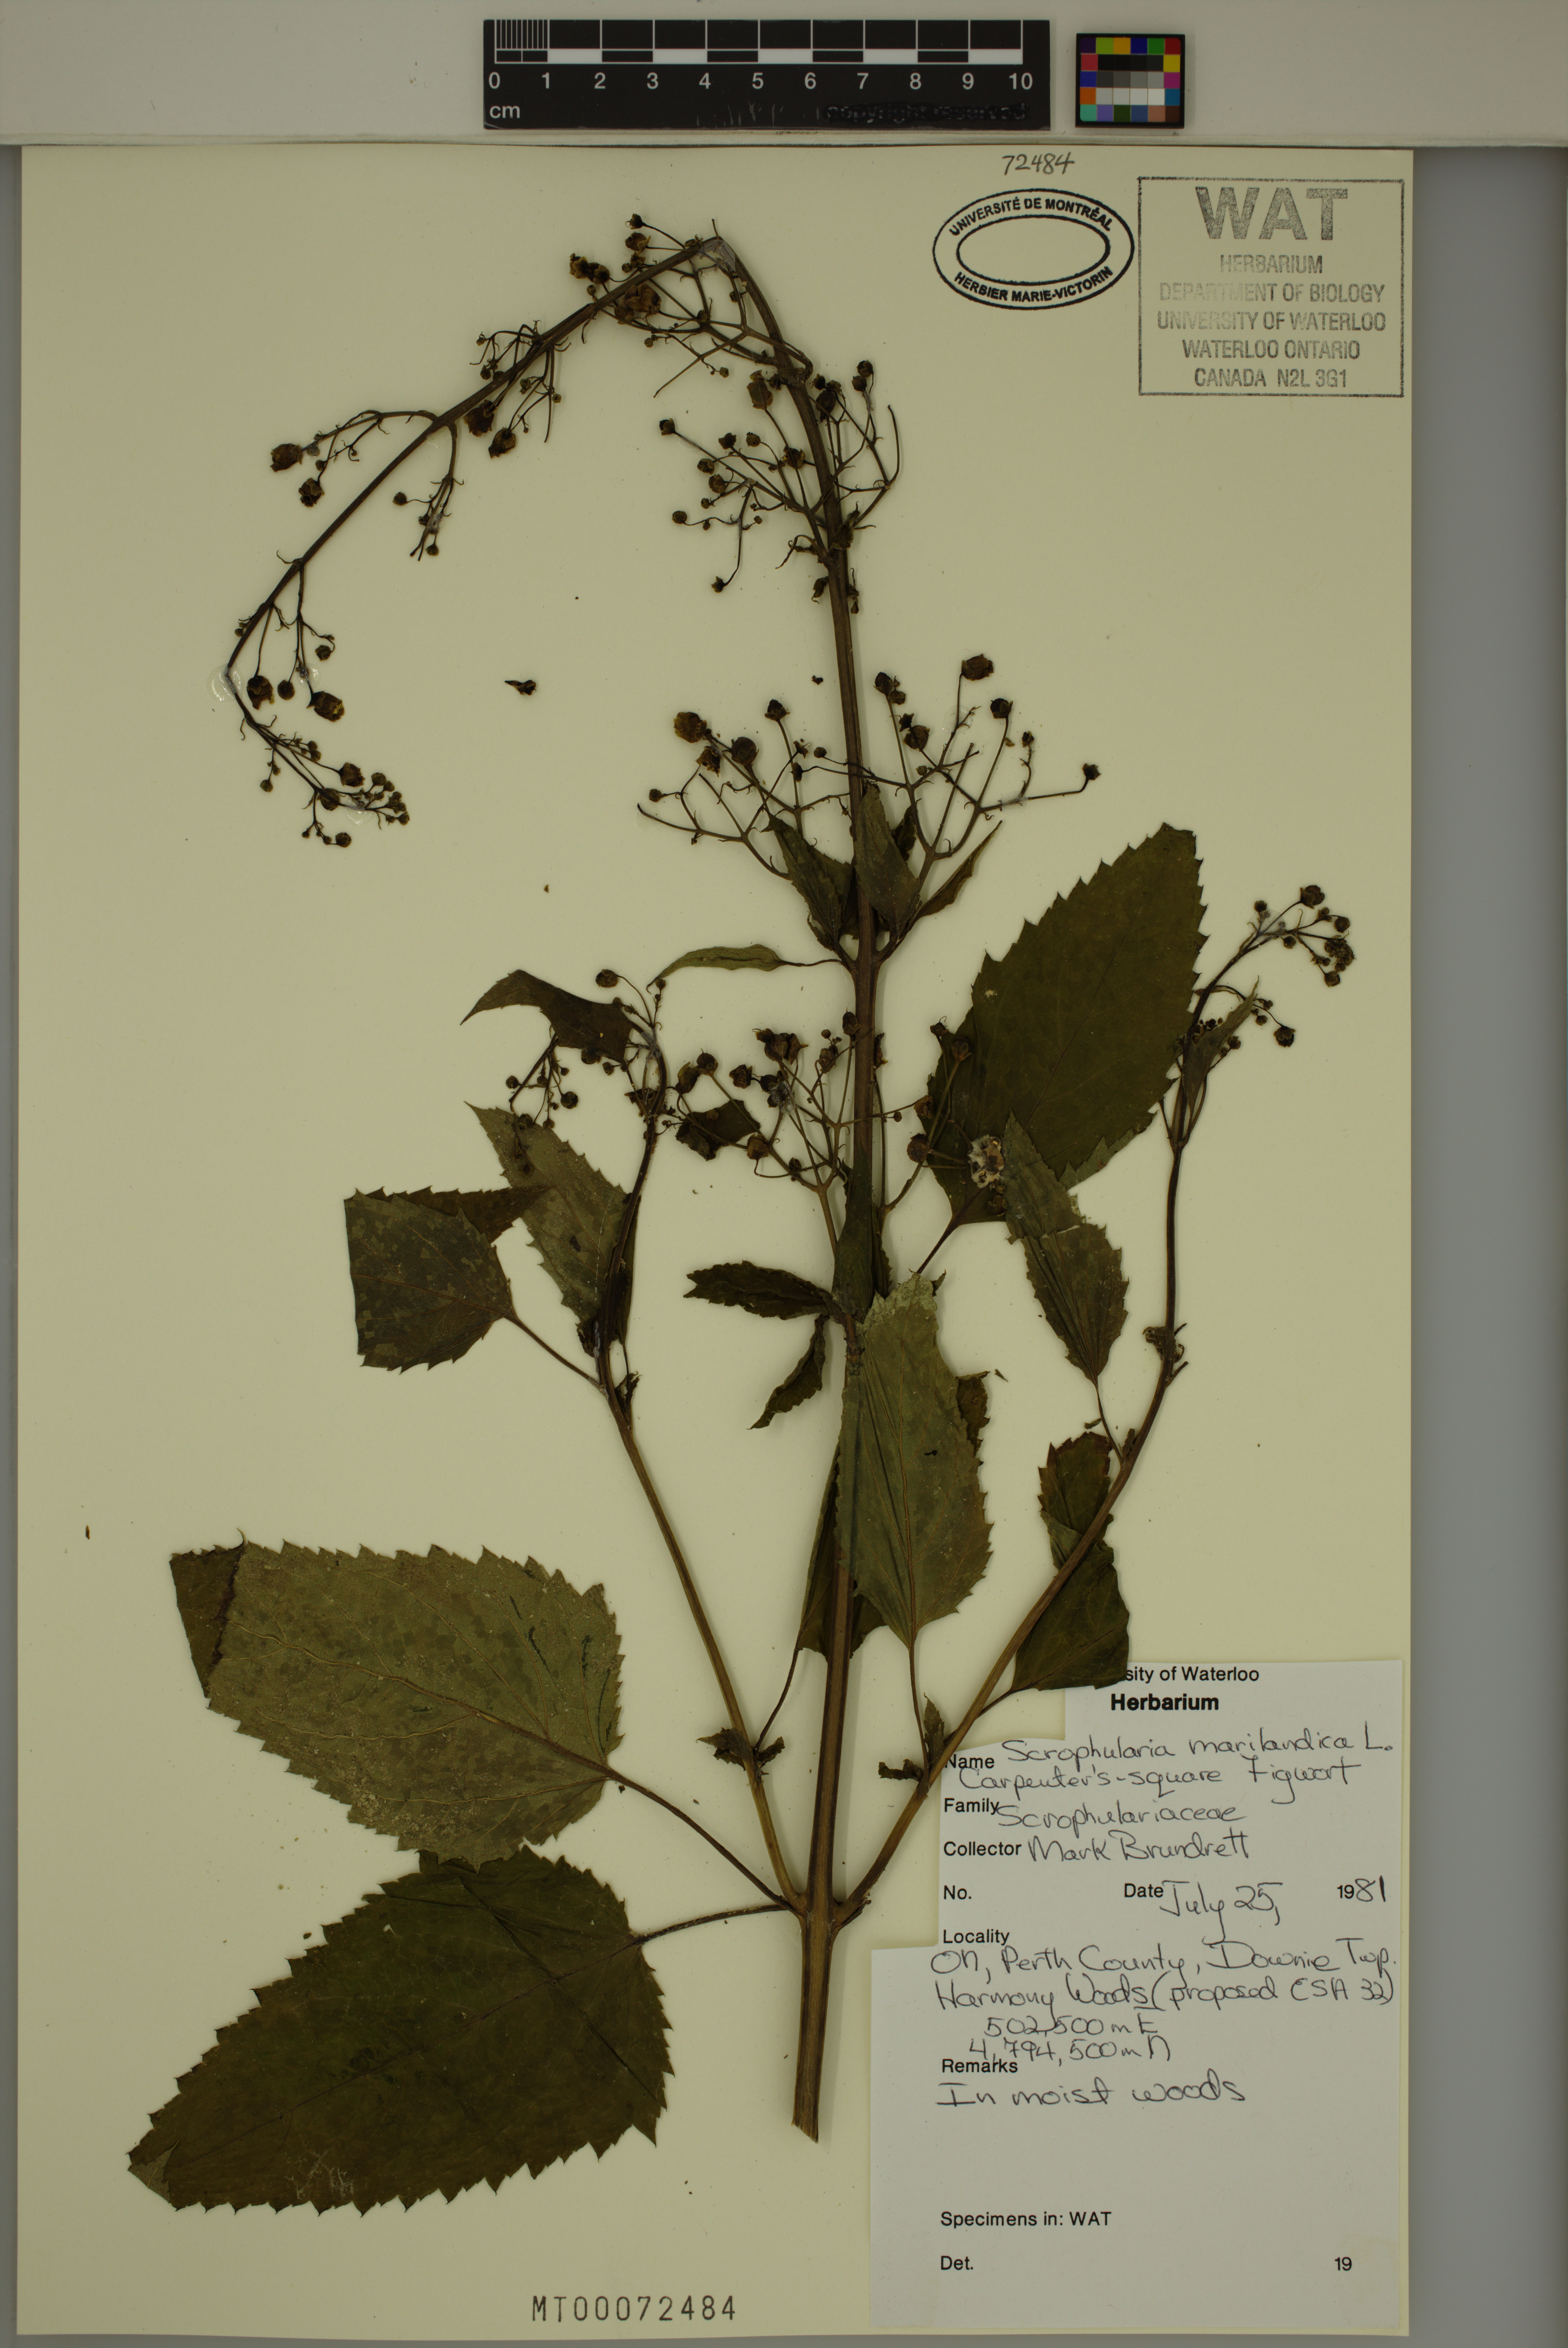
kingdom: Plantae
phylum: Tracheophyta
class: Magnoliopsida
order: Lamiales
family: Scrophulariaceae
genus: Scrophularia
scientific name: Scrophularia marilandica
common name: Eastern figwort
